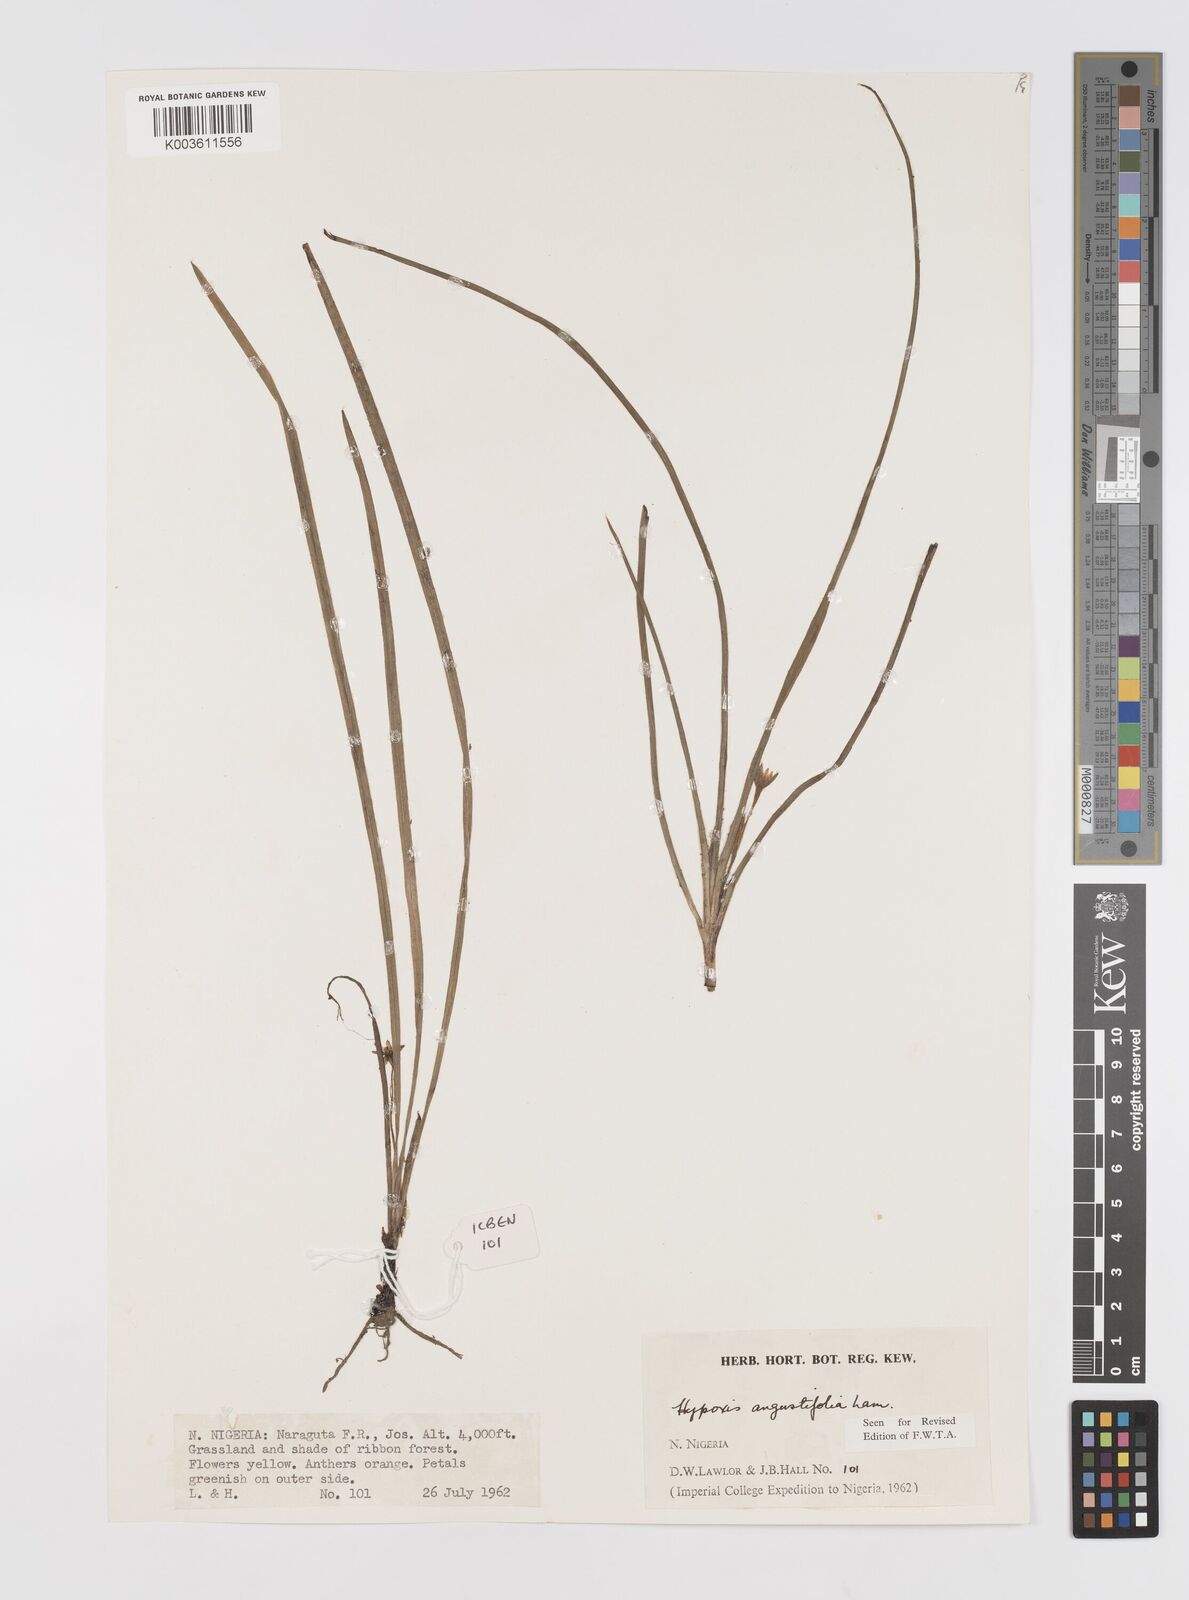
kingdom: Plantae
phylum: Tracheophyta
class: Liliopsida
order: Asparagales
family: Hypoxidaceae
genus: Hypoxis
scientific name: Hypoxis angustifolia
